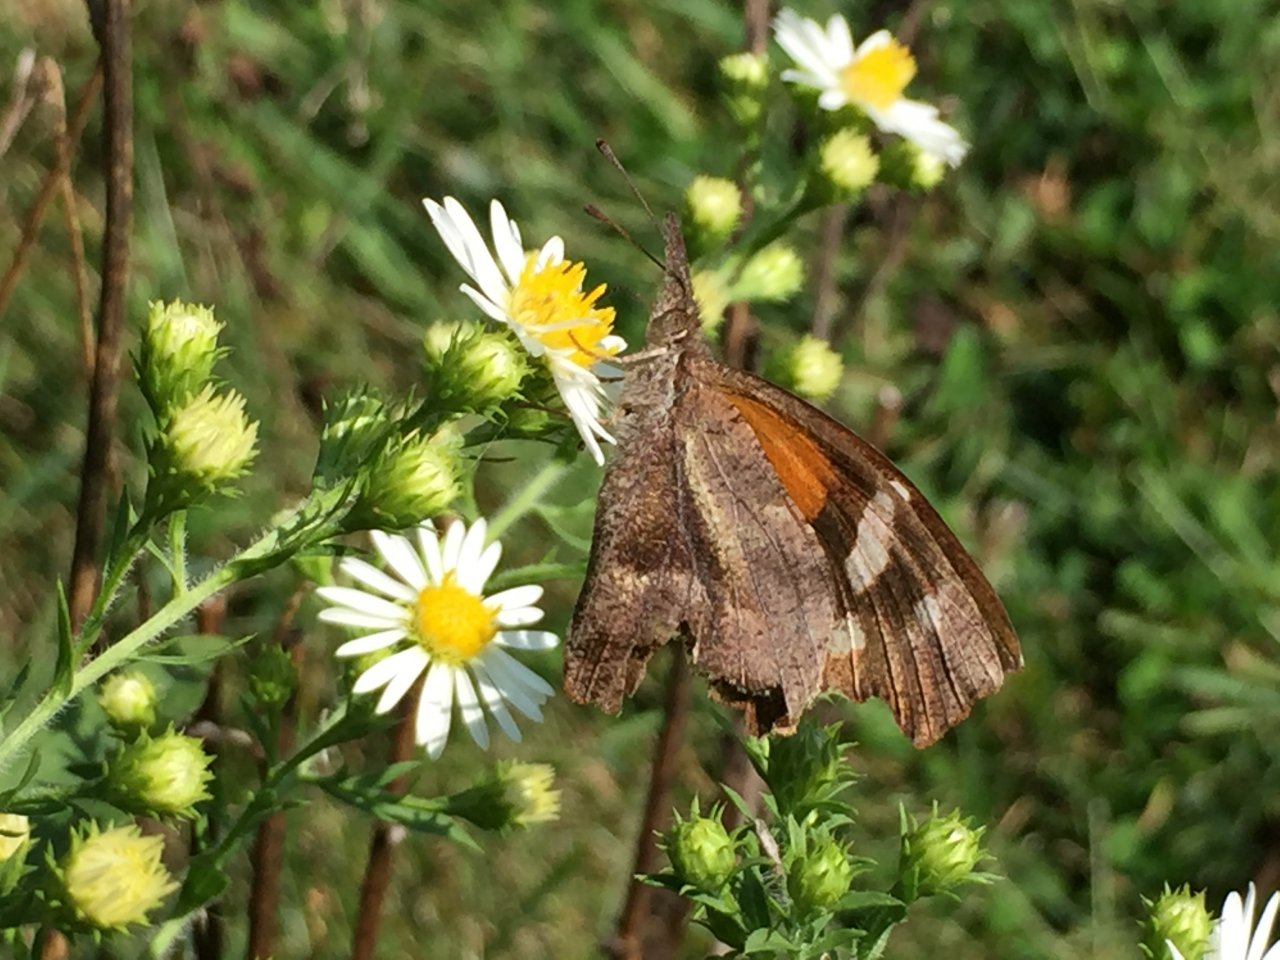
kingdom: Animalia
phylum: Arthropoda
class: Insecta
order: Lepidoptera
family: Nymphalidae
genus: Libytheana
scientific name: Libytheana carinenta
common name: American Snout
